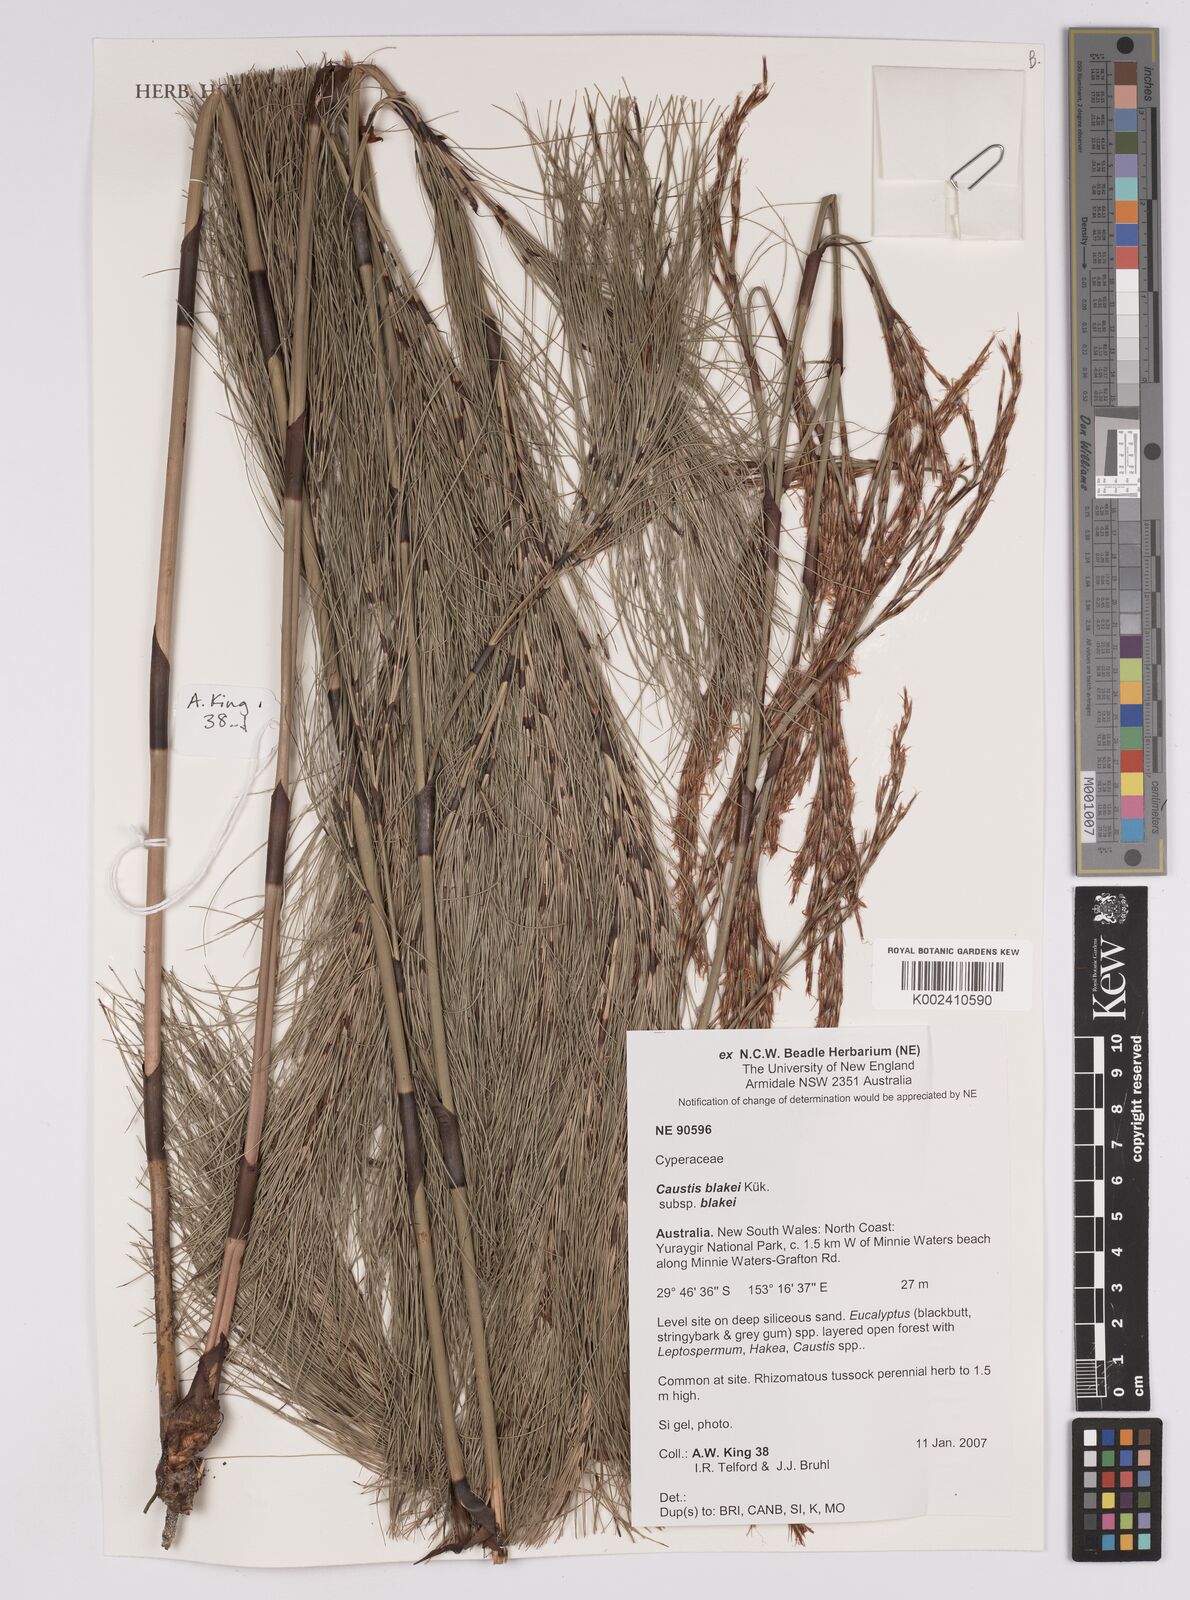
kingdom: Plantae
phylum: Tracheophyta
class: Liliopsida
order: Poales
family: Cyperaceae
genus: Caustis
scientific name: Caustis blakei
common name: Foxtail-fern
